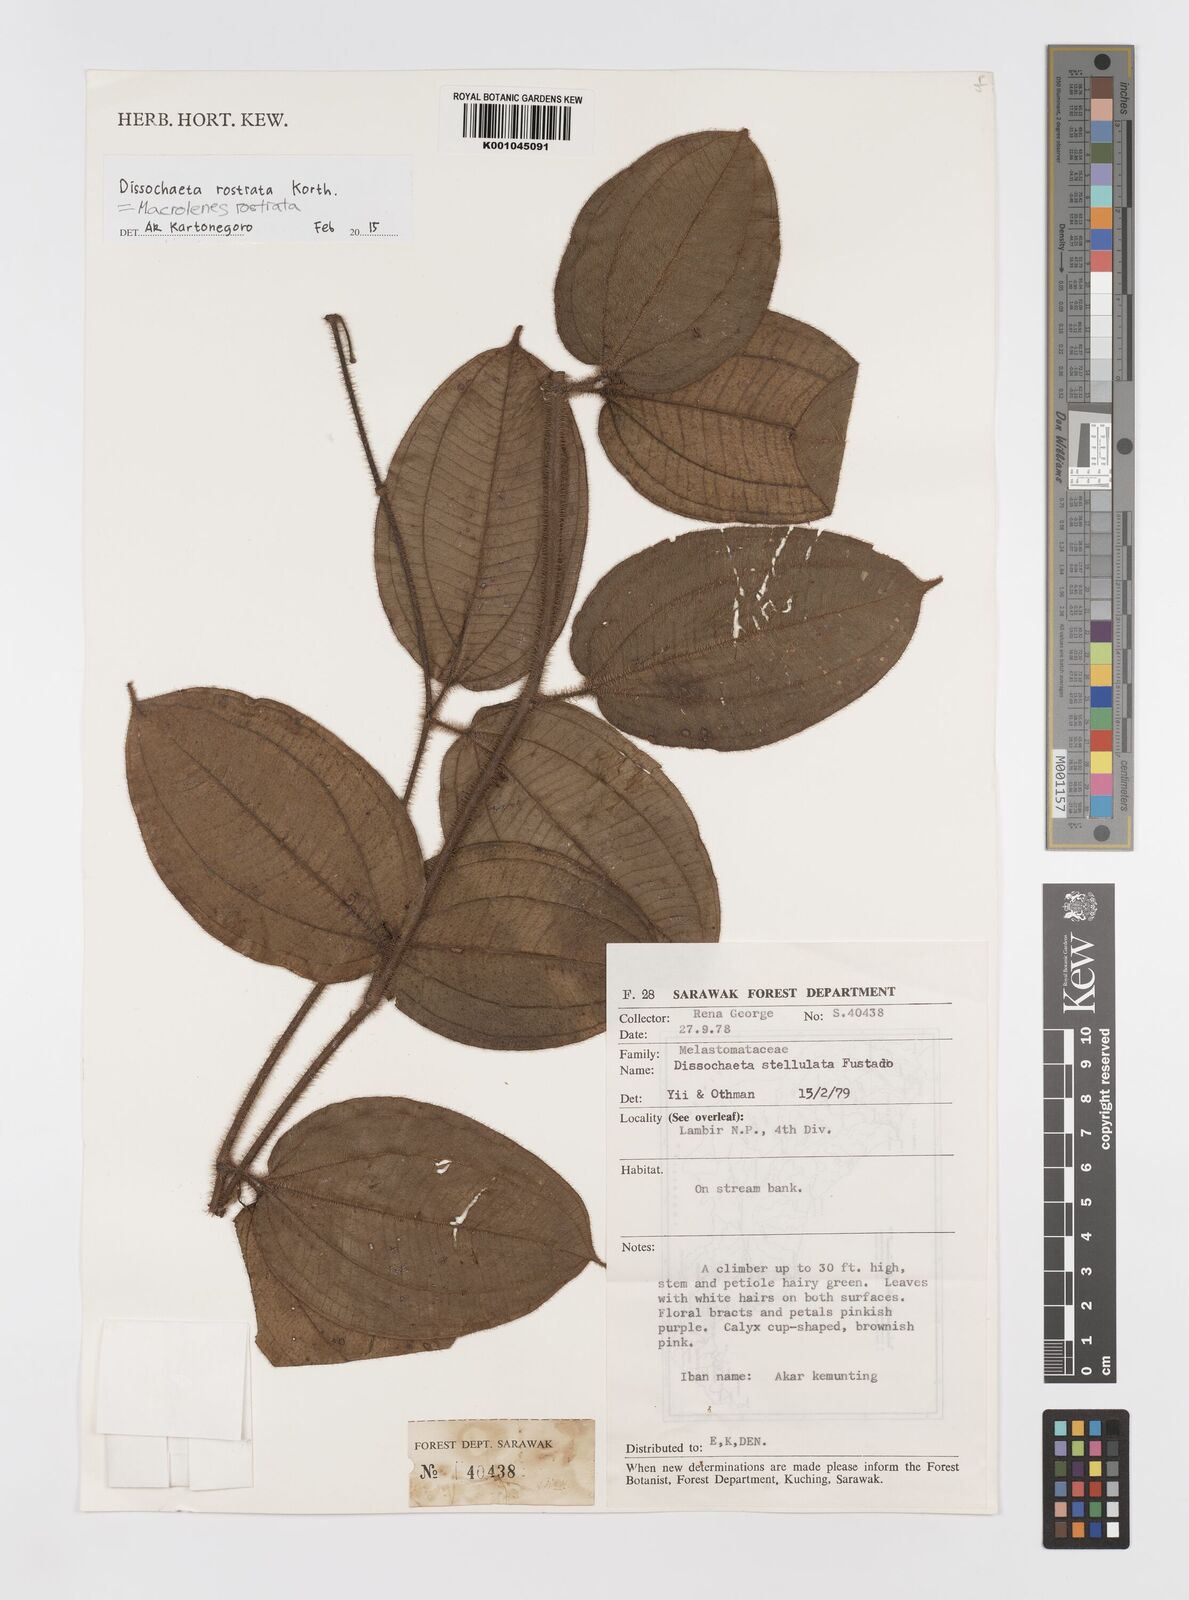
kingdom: Plantae
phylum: Tracheophyta
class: Magnoliopsida
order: Myrtales
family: Melastomataceae
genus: Macrolenes
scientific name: Macrolenes rostrata
